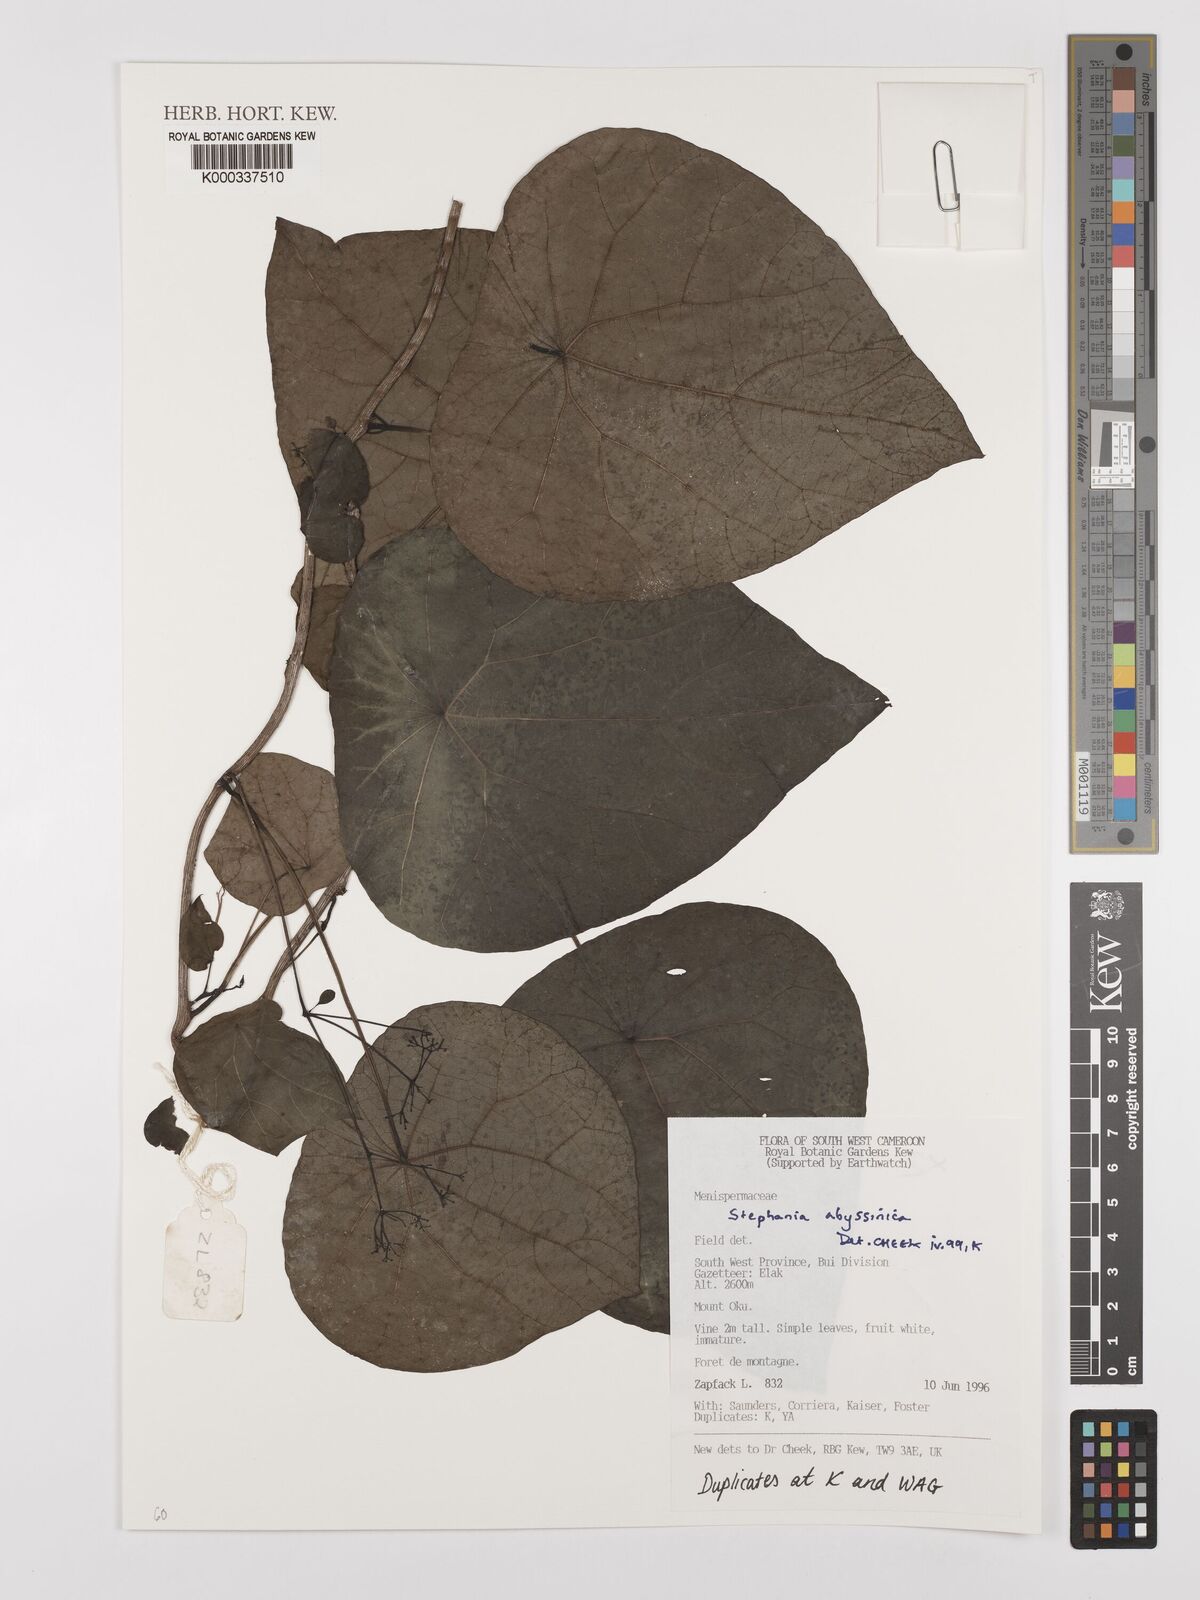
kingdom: Plantae
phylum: Tracheophyta
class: Magnoliopsida
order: Ranunculales
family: Menispermaceae
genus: Stephania
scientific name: Stephania
